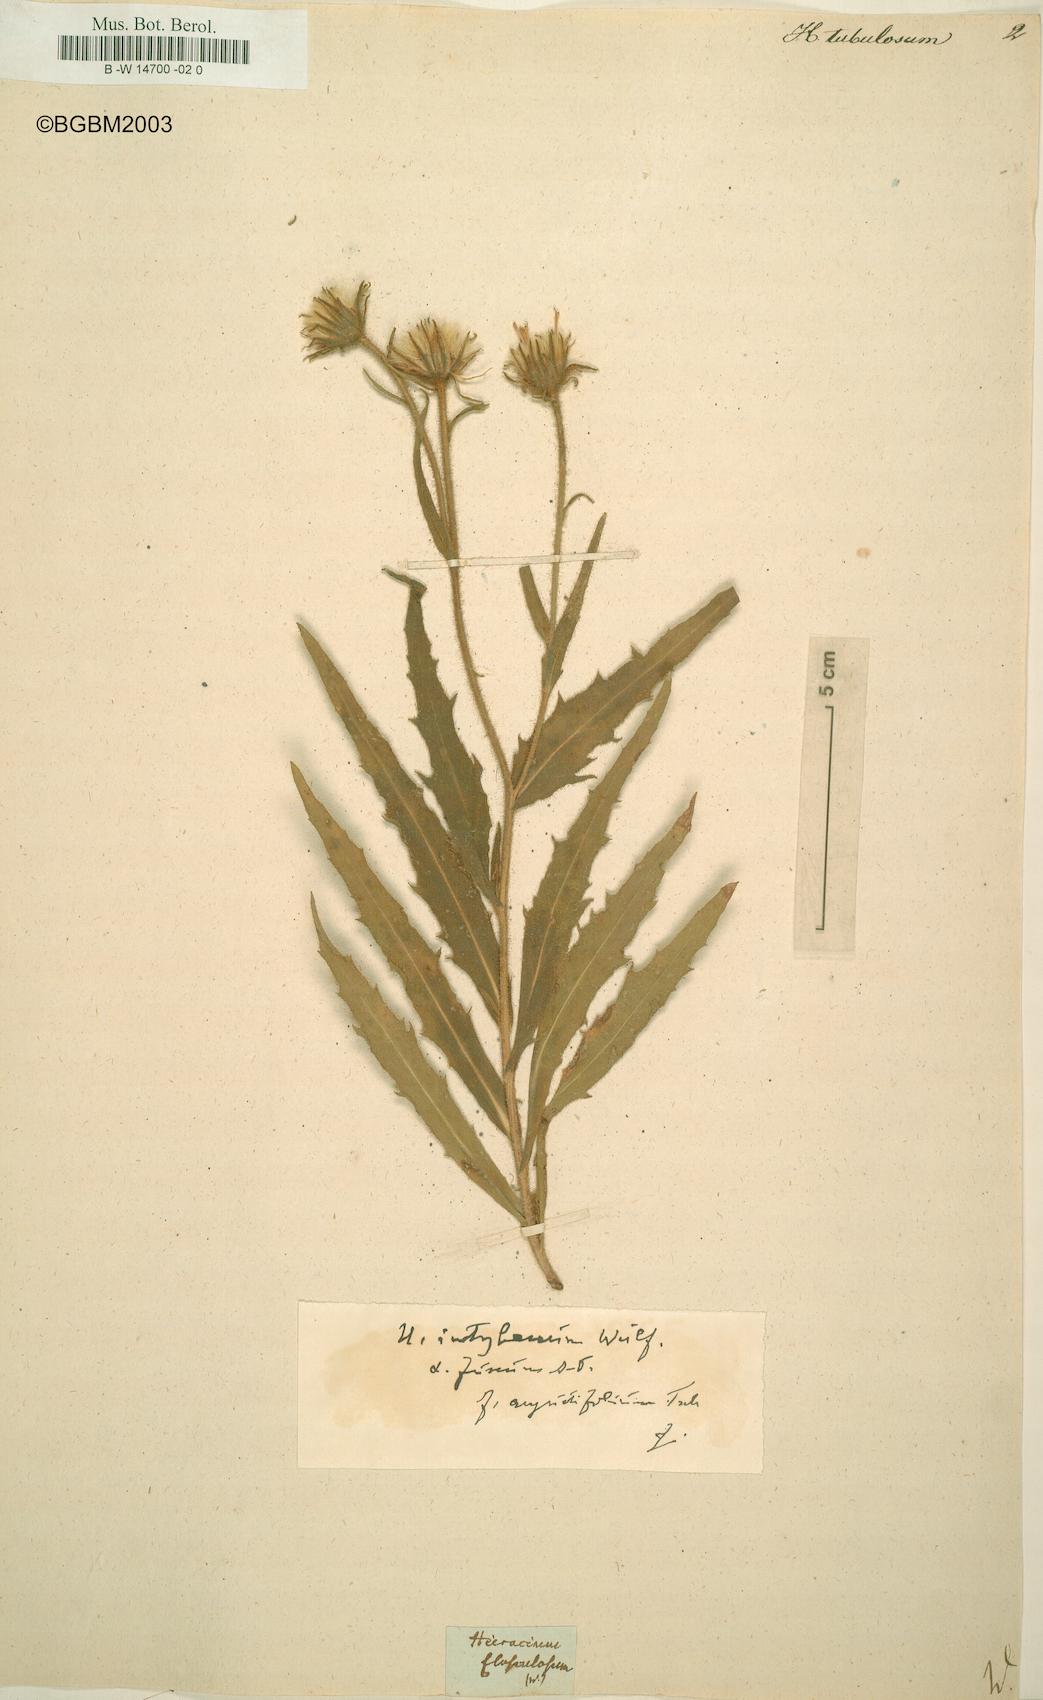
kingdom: Plantae
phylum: Tracheophyta
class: Magnoliopsida
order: Asterales
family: Asteraceae
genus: Hieracium
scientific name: Hieracium tubulosum
